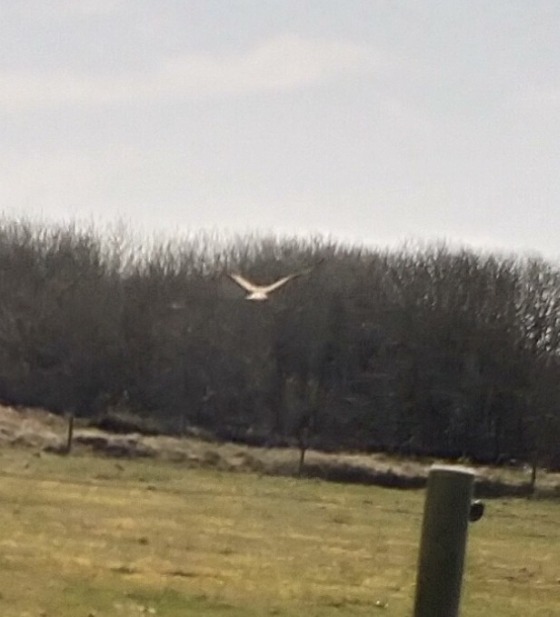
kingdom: Animalia
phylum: Chordata
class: Aves
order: Accipitriformes
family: Accipitridae
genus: Buteo
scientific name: Buteo buteo
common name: Musvåge
